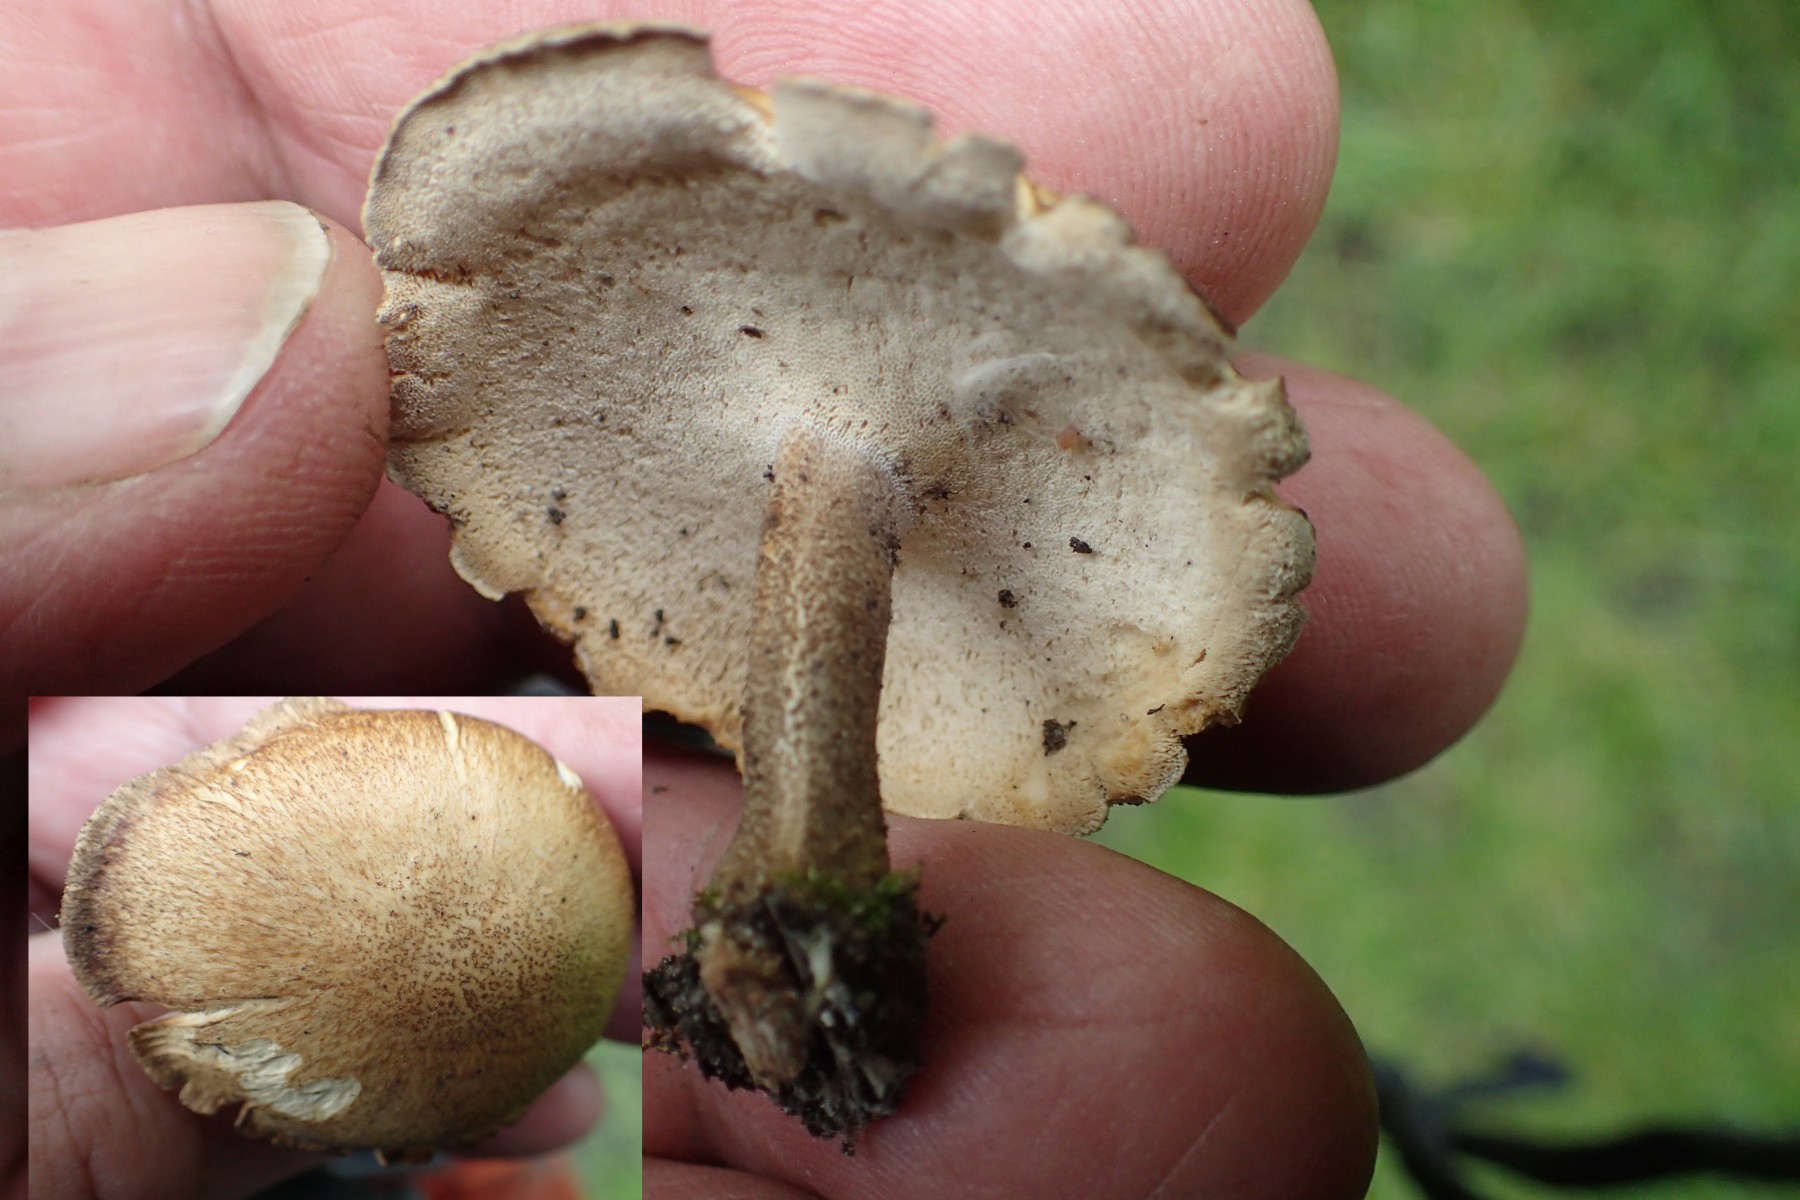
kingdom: Fungi
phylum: Basidiomycota
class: Agaricomycetes
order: Polyporales
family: Polyporaceae
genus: Lentinus
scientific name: Lentinus substrictus
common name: forårs-stilkporesvamp
